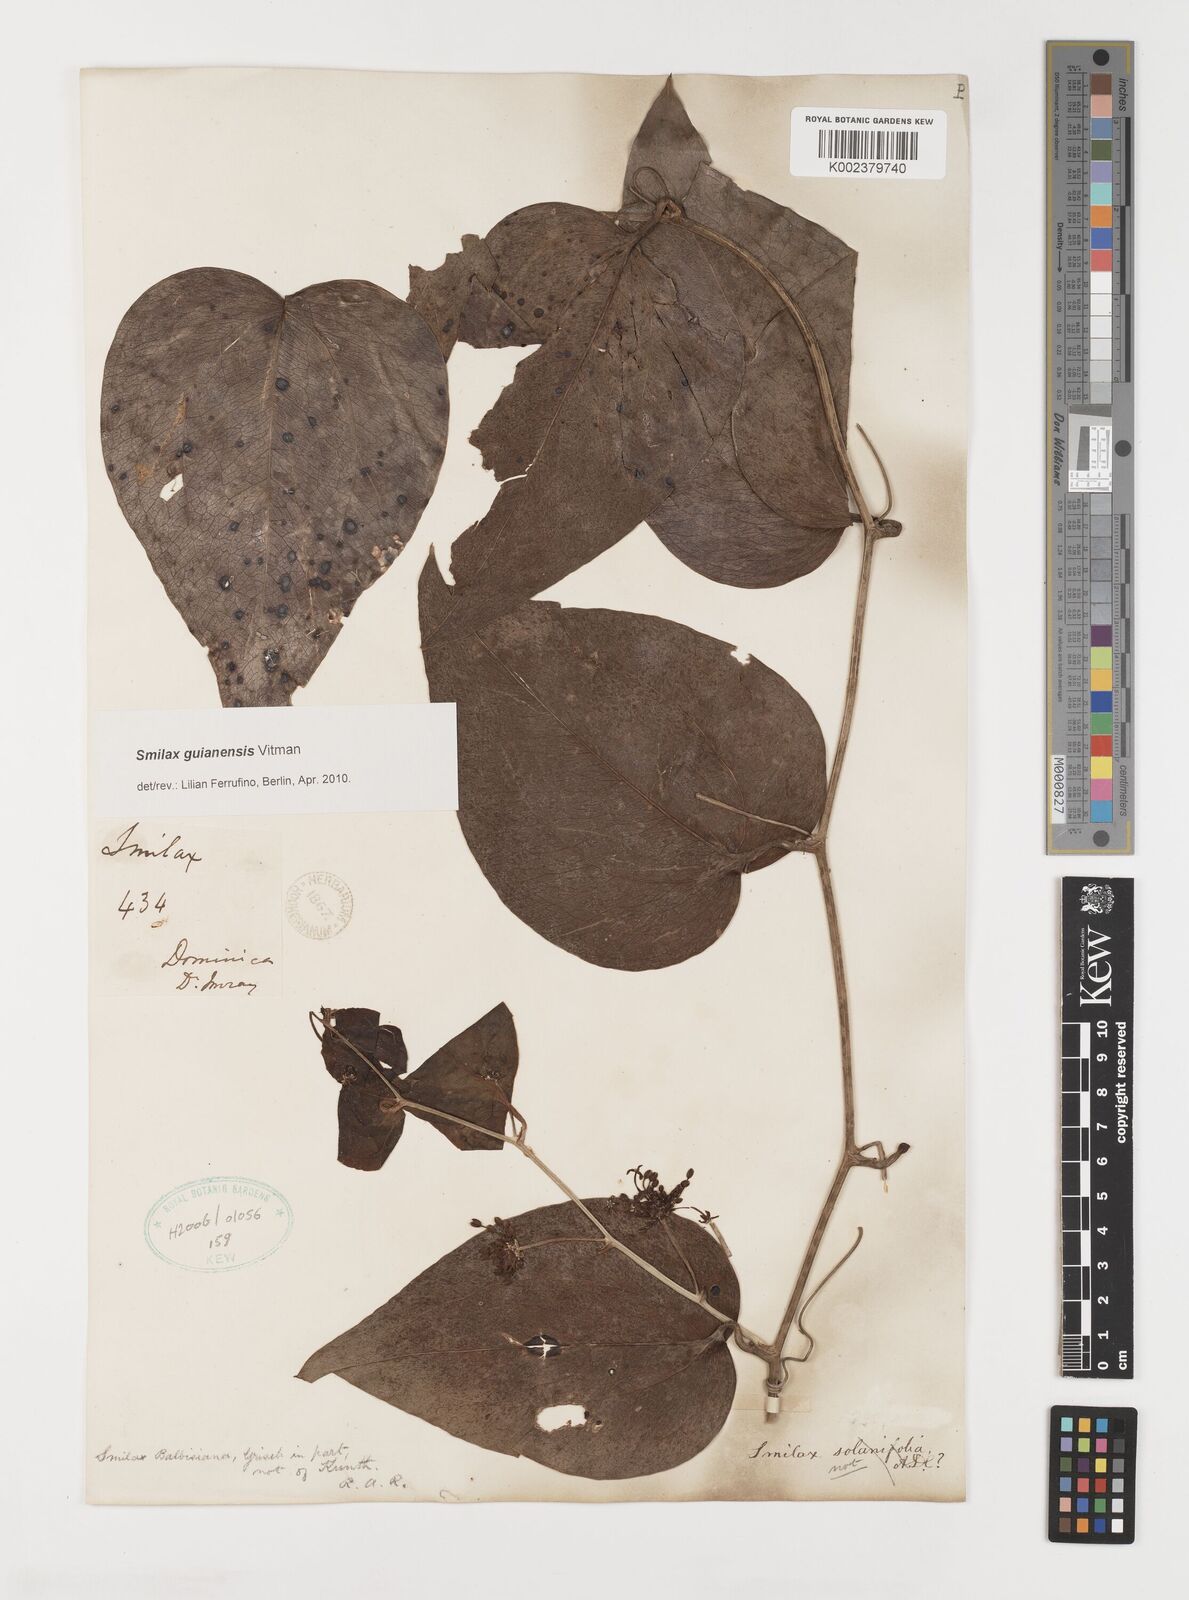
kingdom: Plantae
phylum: Tracheophyta
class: Liliopsida
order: Liliales
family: Smilacaceae
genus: Smilax
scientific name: Smilax guianensis
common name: Basket hoop
